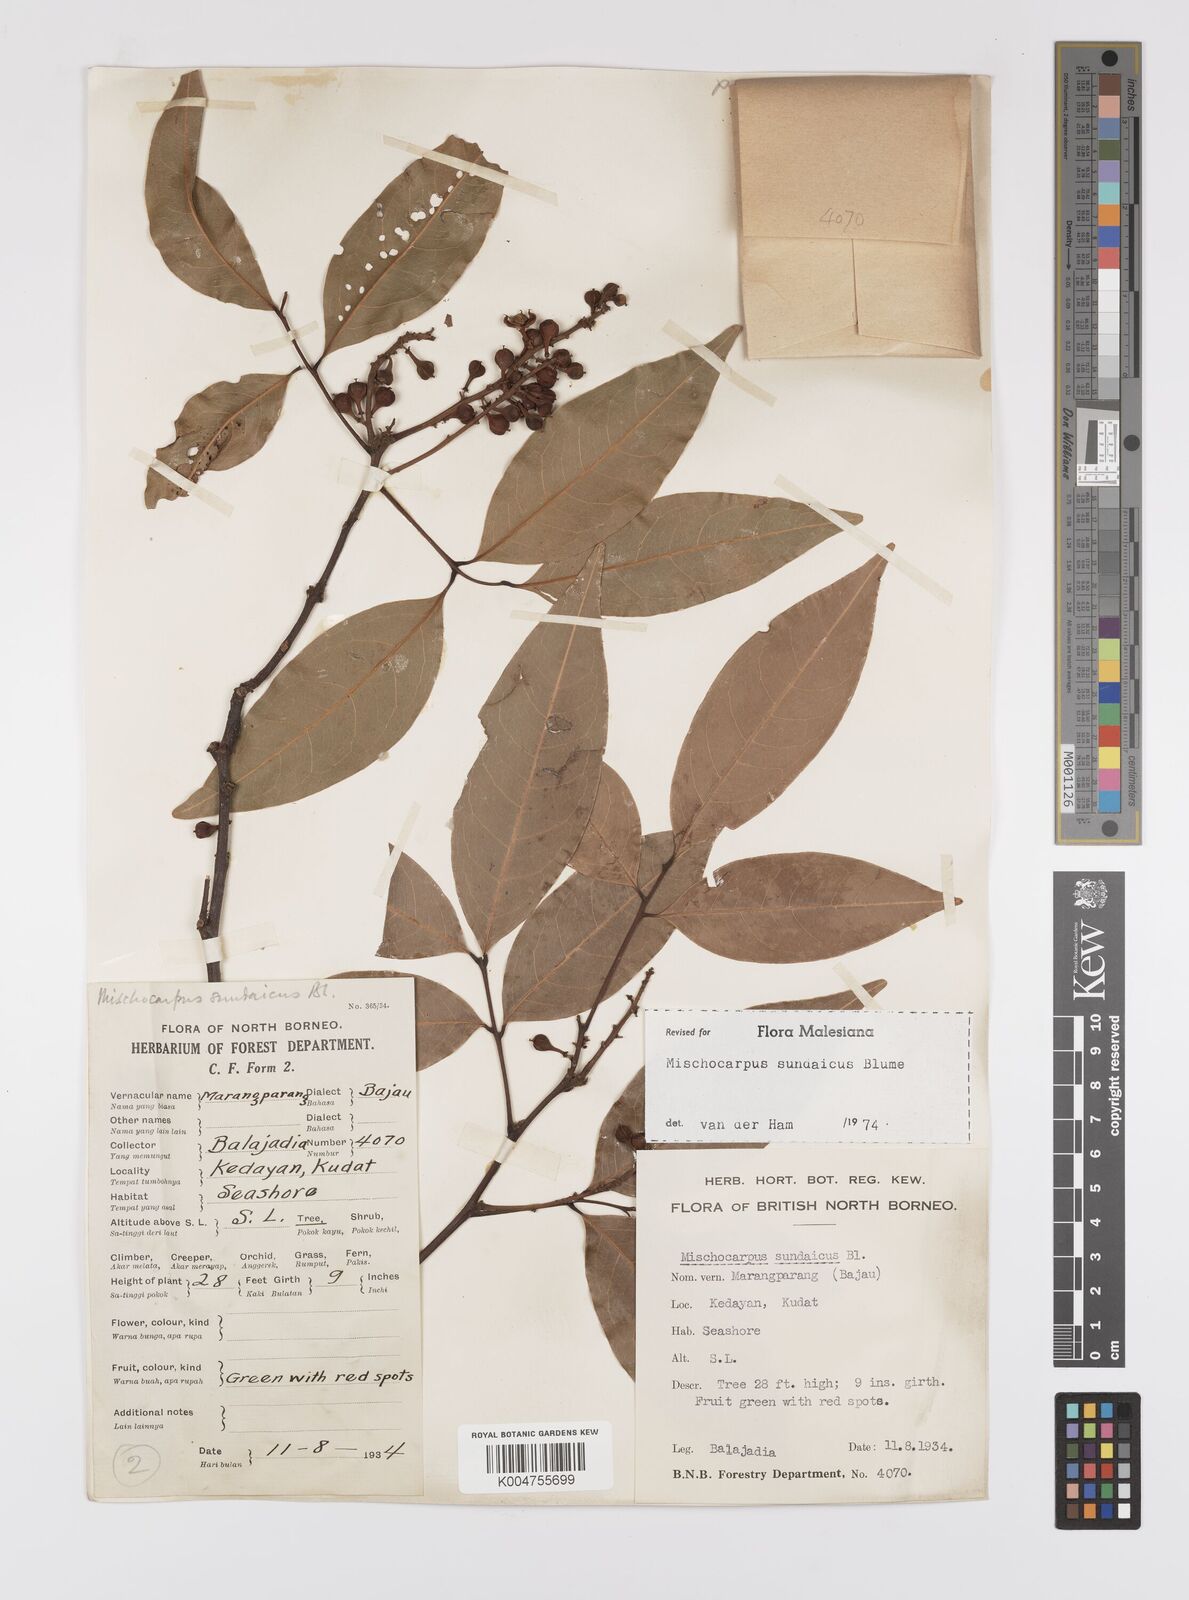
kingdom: Plantae
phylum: Tracheophyta
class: Magnoliopsida
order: Sapindales
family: Sapindaceae
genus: Mischocarpus
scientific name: Mischocarpus sundaicus
